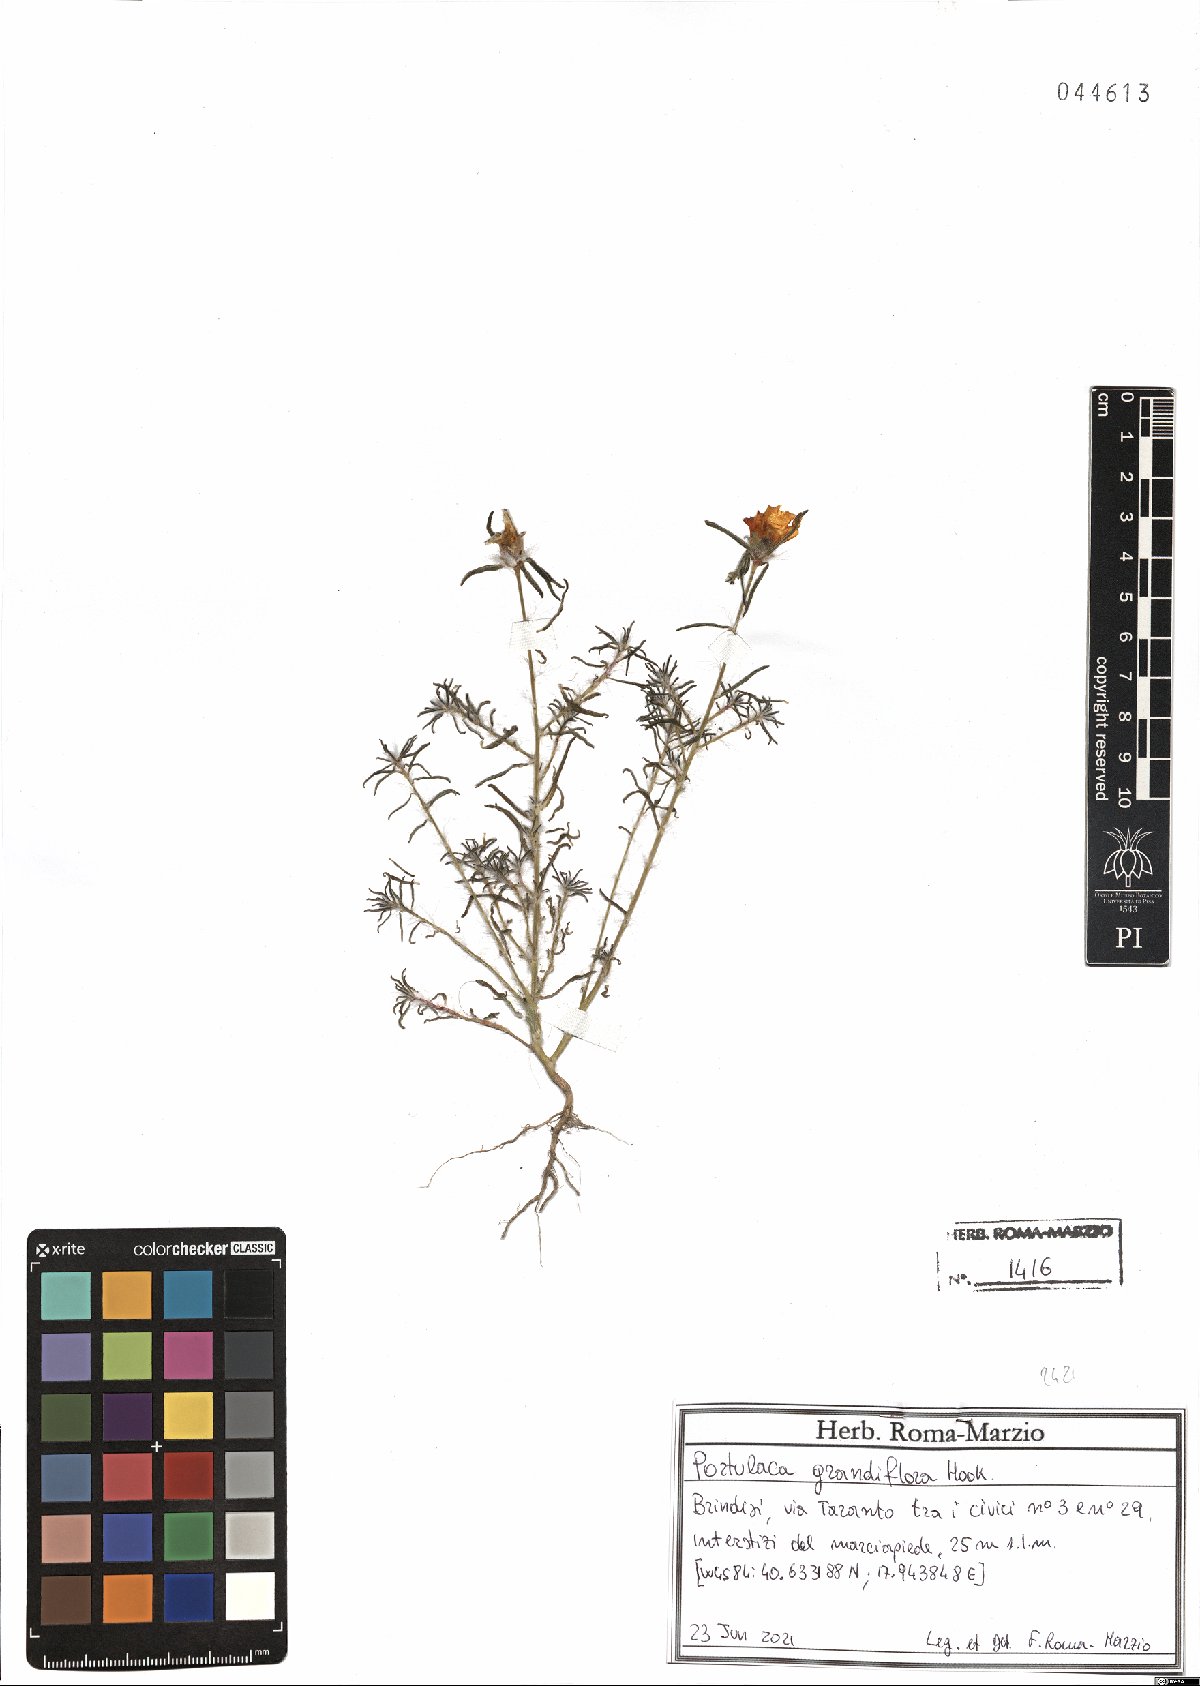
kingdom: Plantae
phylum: Tracheophyta
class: Magnoliopsida
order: Caryophyllales
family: Portulacaceae
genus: Portulaca
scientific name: Portulaca grandiflora
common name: Moss-rose
